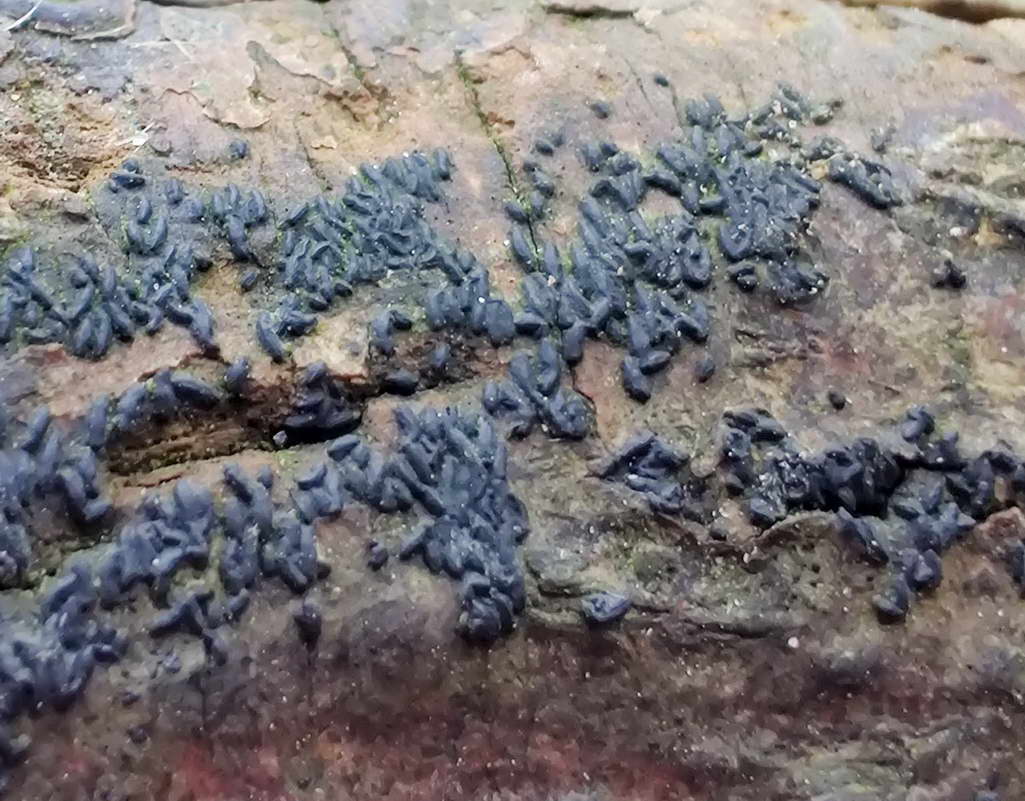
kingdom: Fungi
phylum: Ascomycota
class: Dothideomycetes
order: Hysteriales
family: Hysteriaceae
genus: Hysterium
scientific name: Hysterium acuminatum
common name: almindelig kulmund
